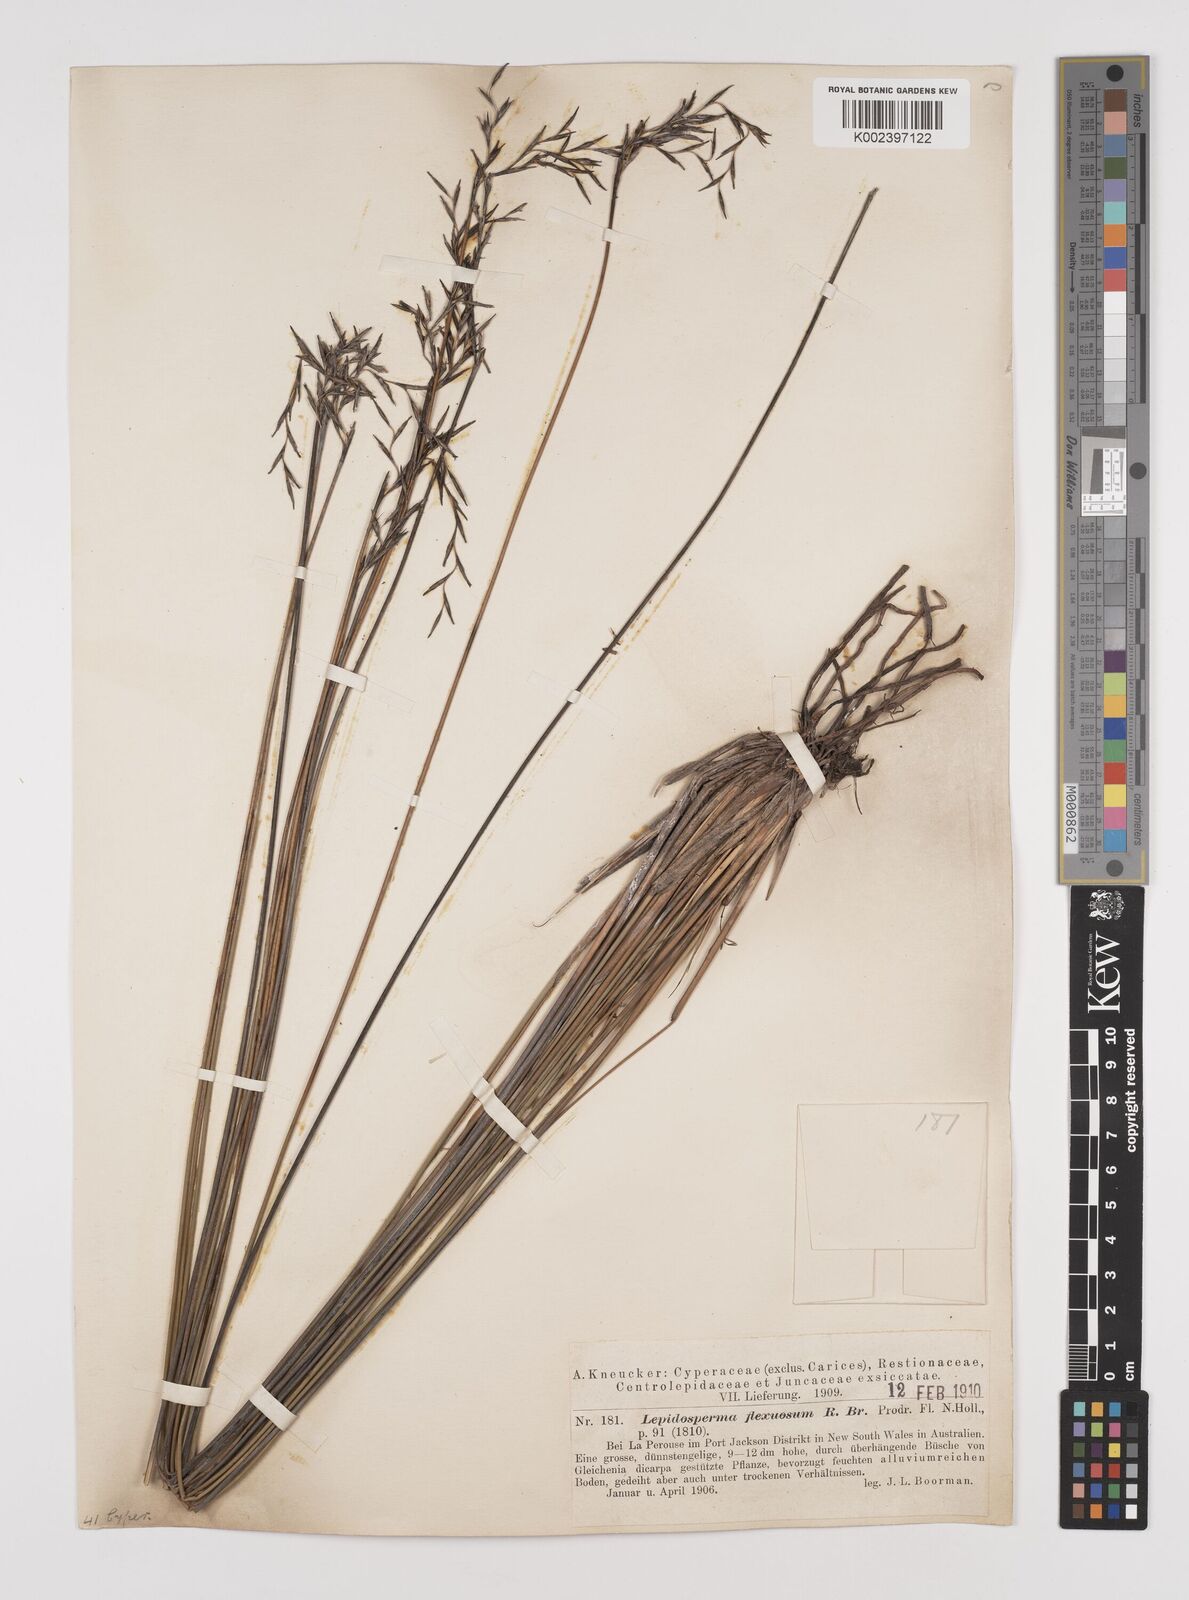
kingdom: Plantae
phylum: Tracheophyta
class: Liliopsida
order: Poales
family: Cyperaceae
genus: Lepidosperma
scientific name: Lepidosperma flexuosum
